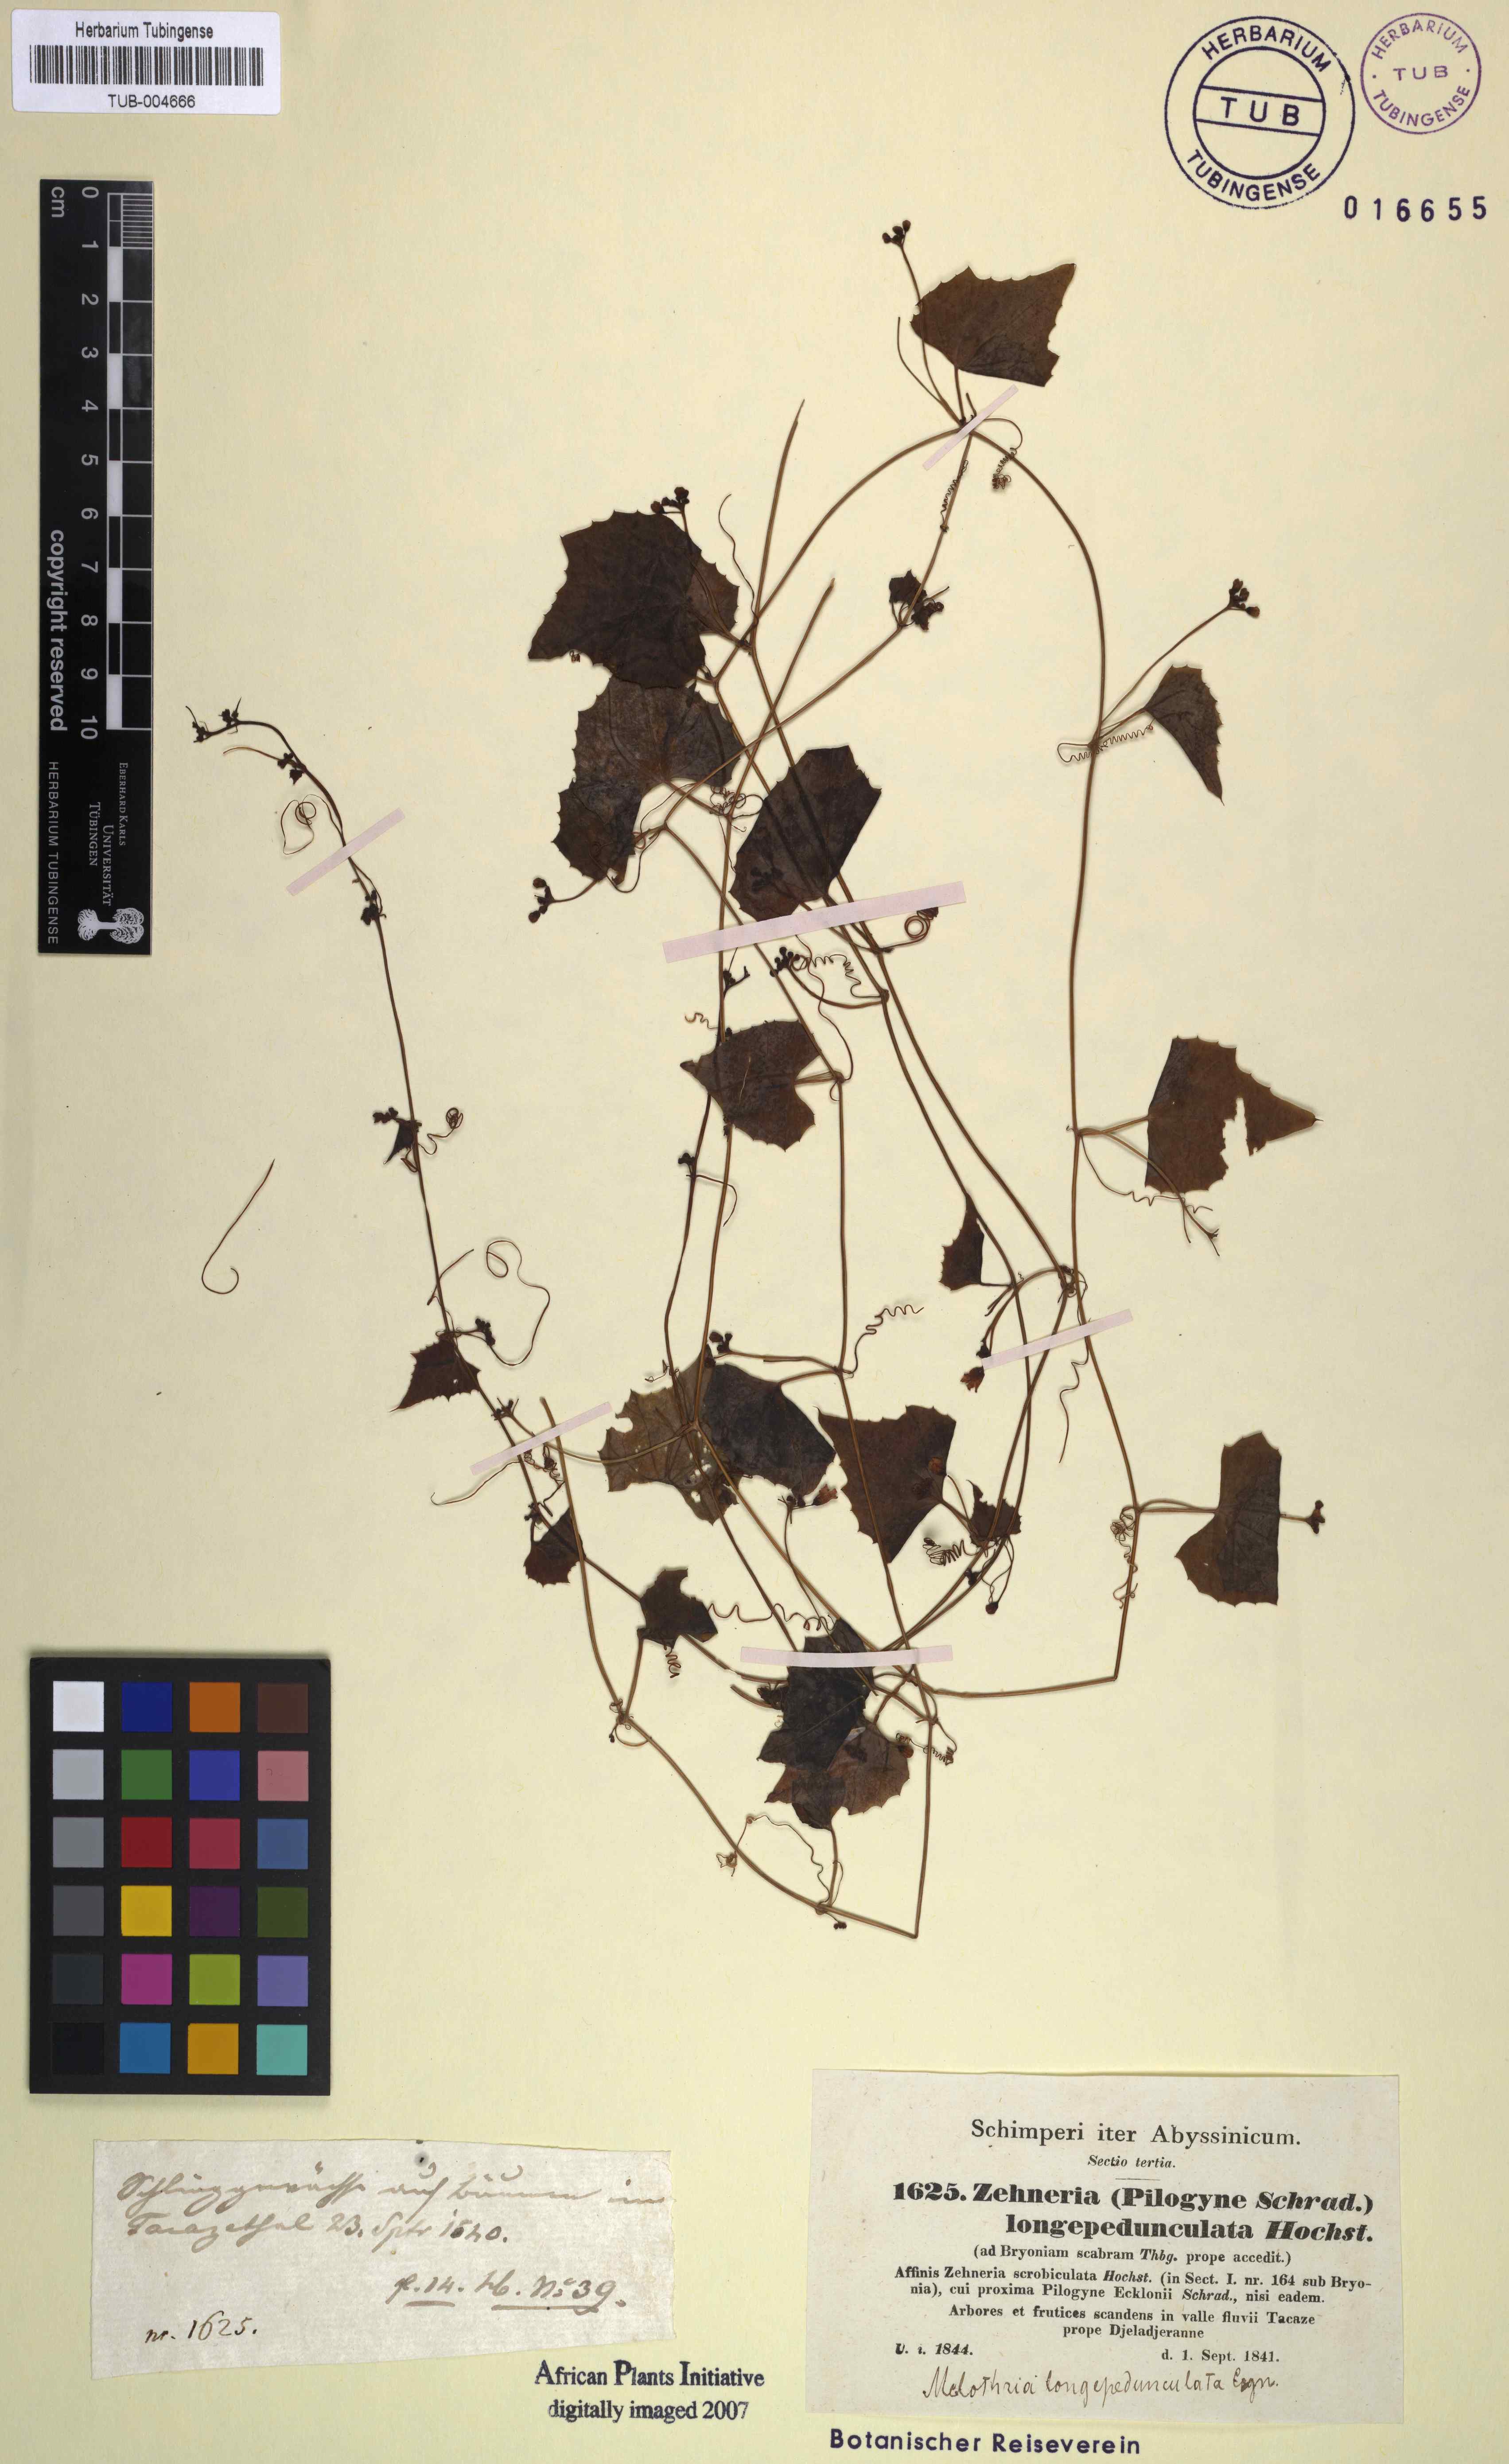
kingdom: Plantae
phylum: Tracheophyta
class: Magnoliopsida
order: Cucurbitales
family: Cucurbitaceae
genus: Melothria
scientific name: Melothria longipedunculata
